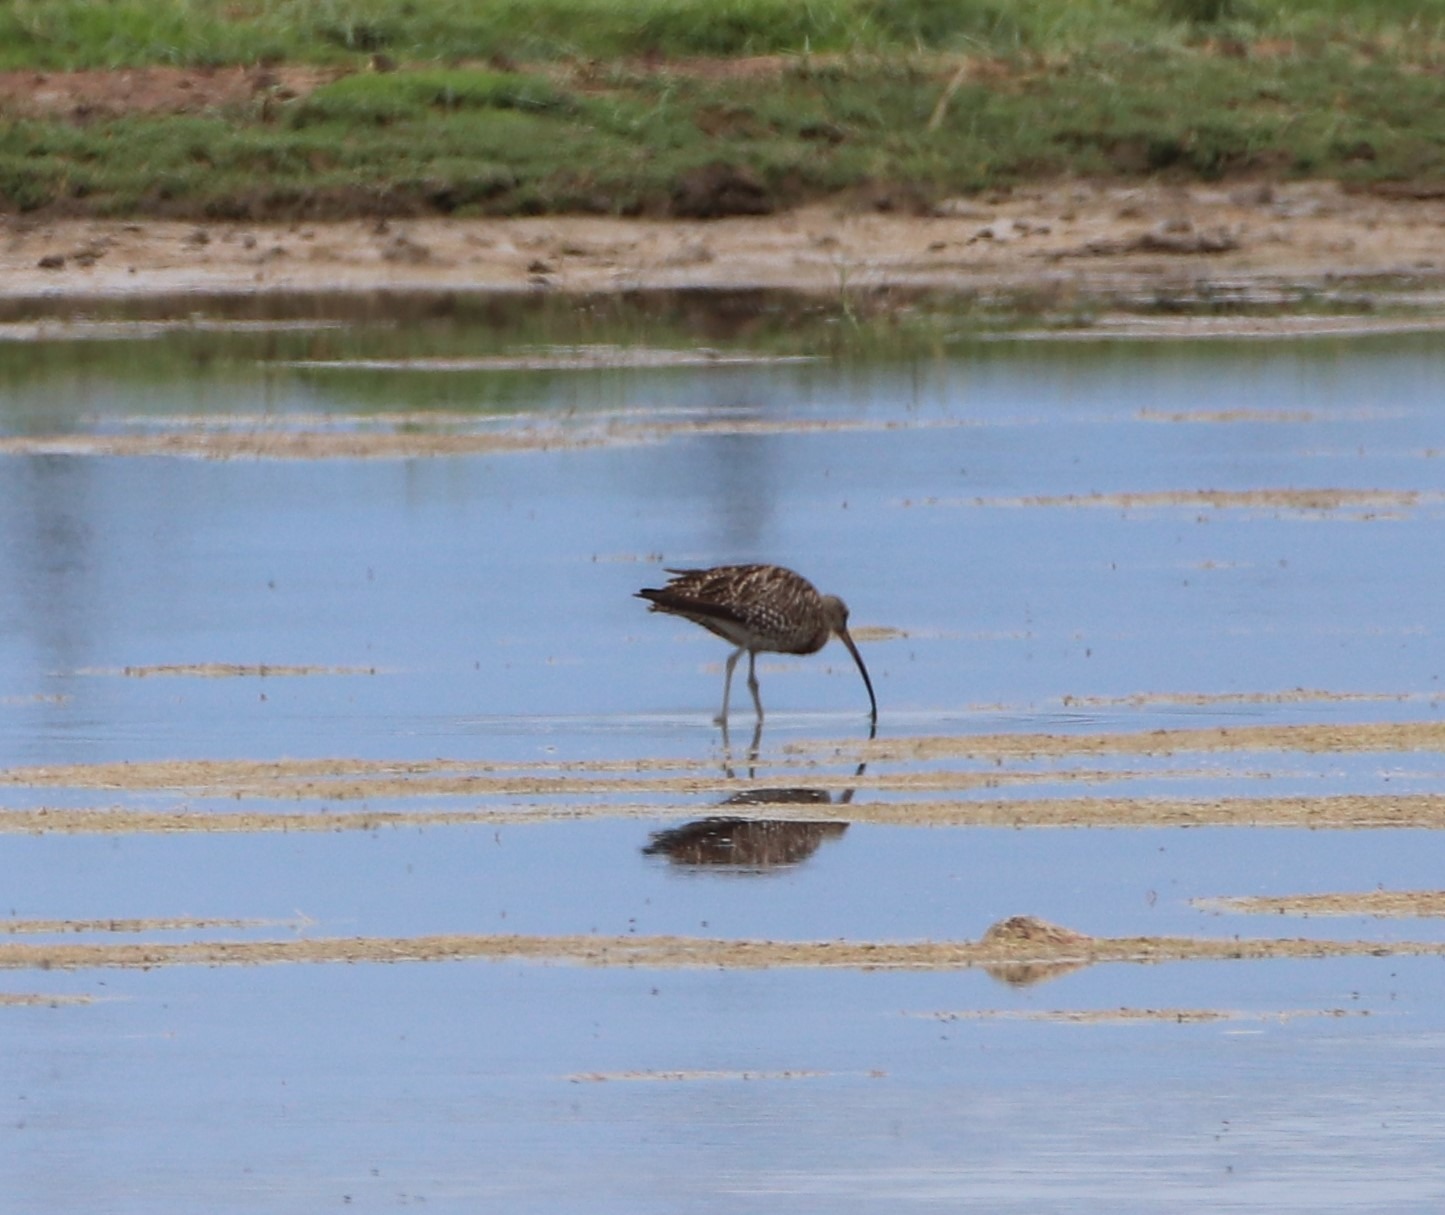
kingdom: Animalia
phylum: Chordata
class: Aves
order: Charadriiformes
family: Scolopacidae
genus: Numenius
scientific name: Numenius arquata
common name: Storspove
